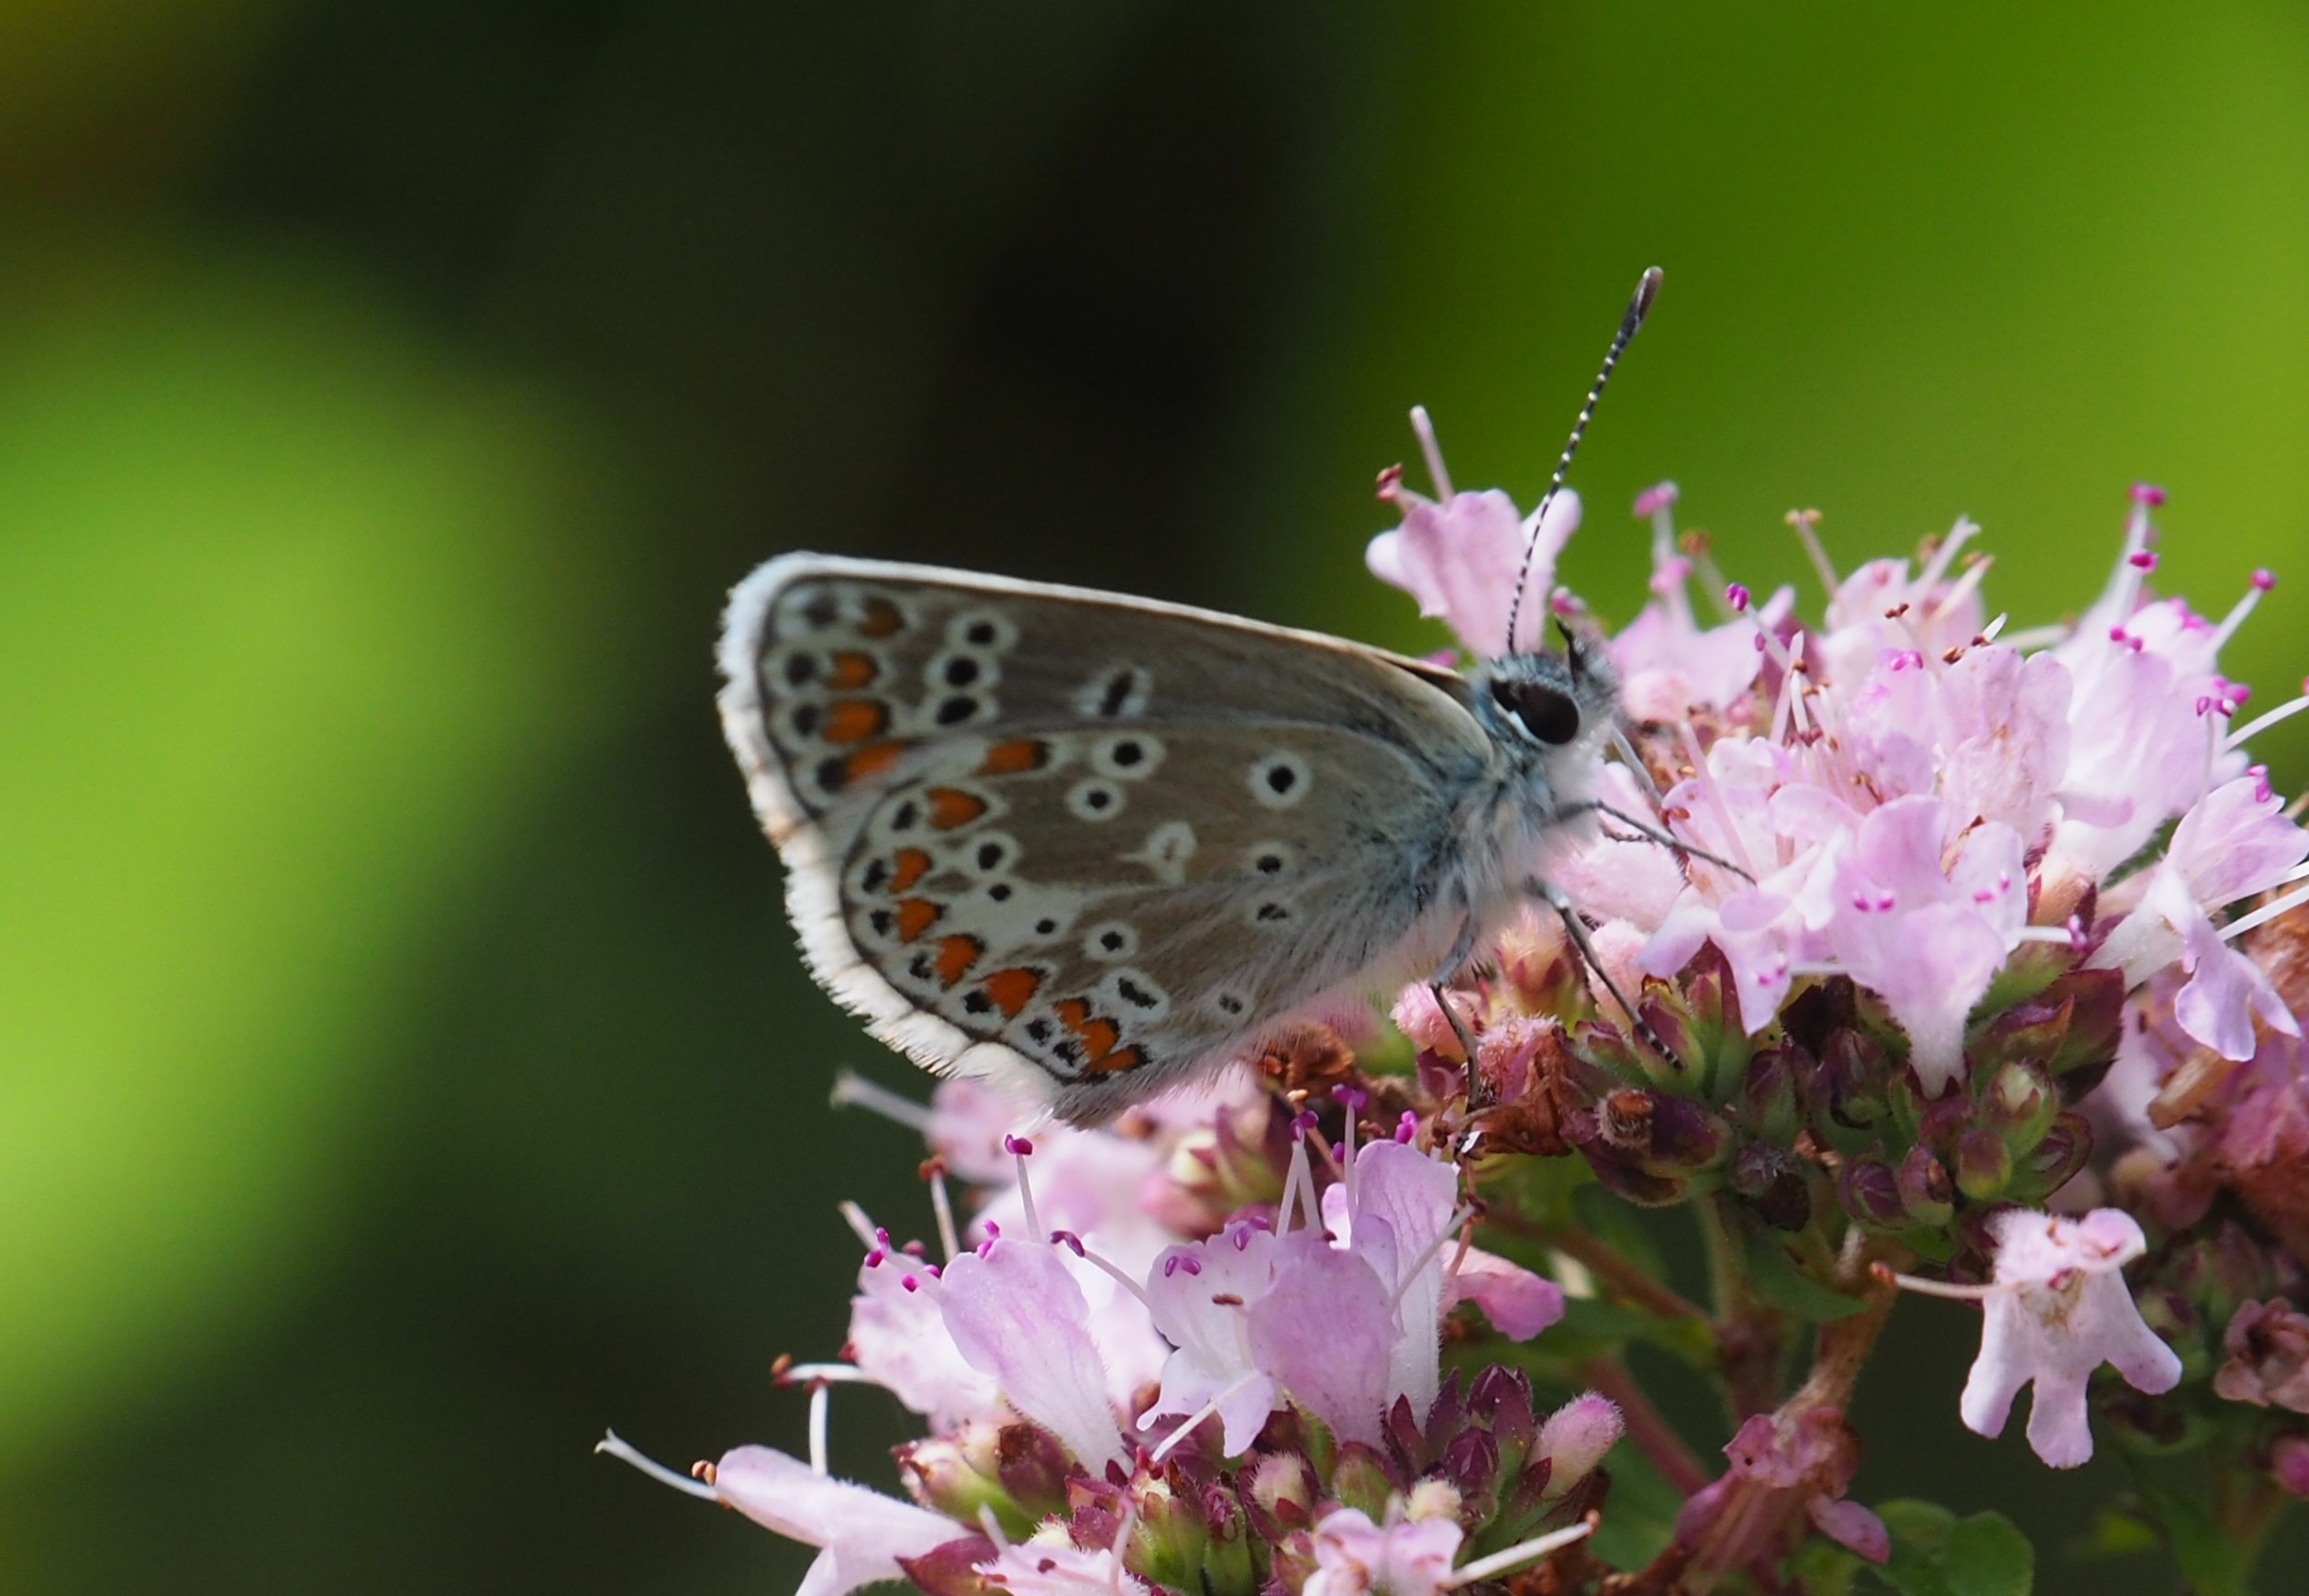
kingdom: Animalia
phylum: Arthropoda
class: Insecta
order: Lepidoptera
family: Lycaenidae
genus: Aricia
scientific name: Aricia agestis
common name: Rødplettet blåfugl
